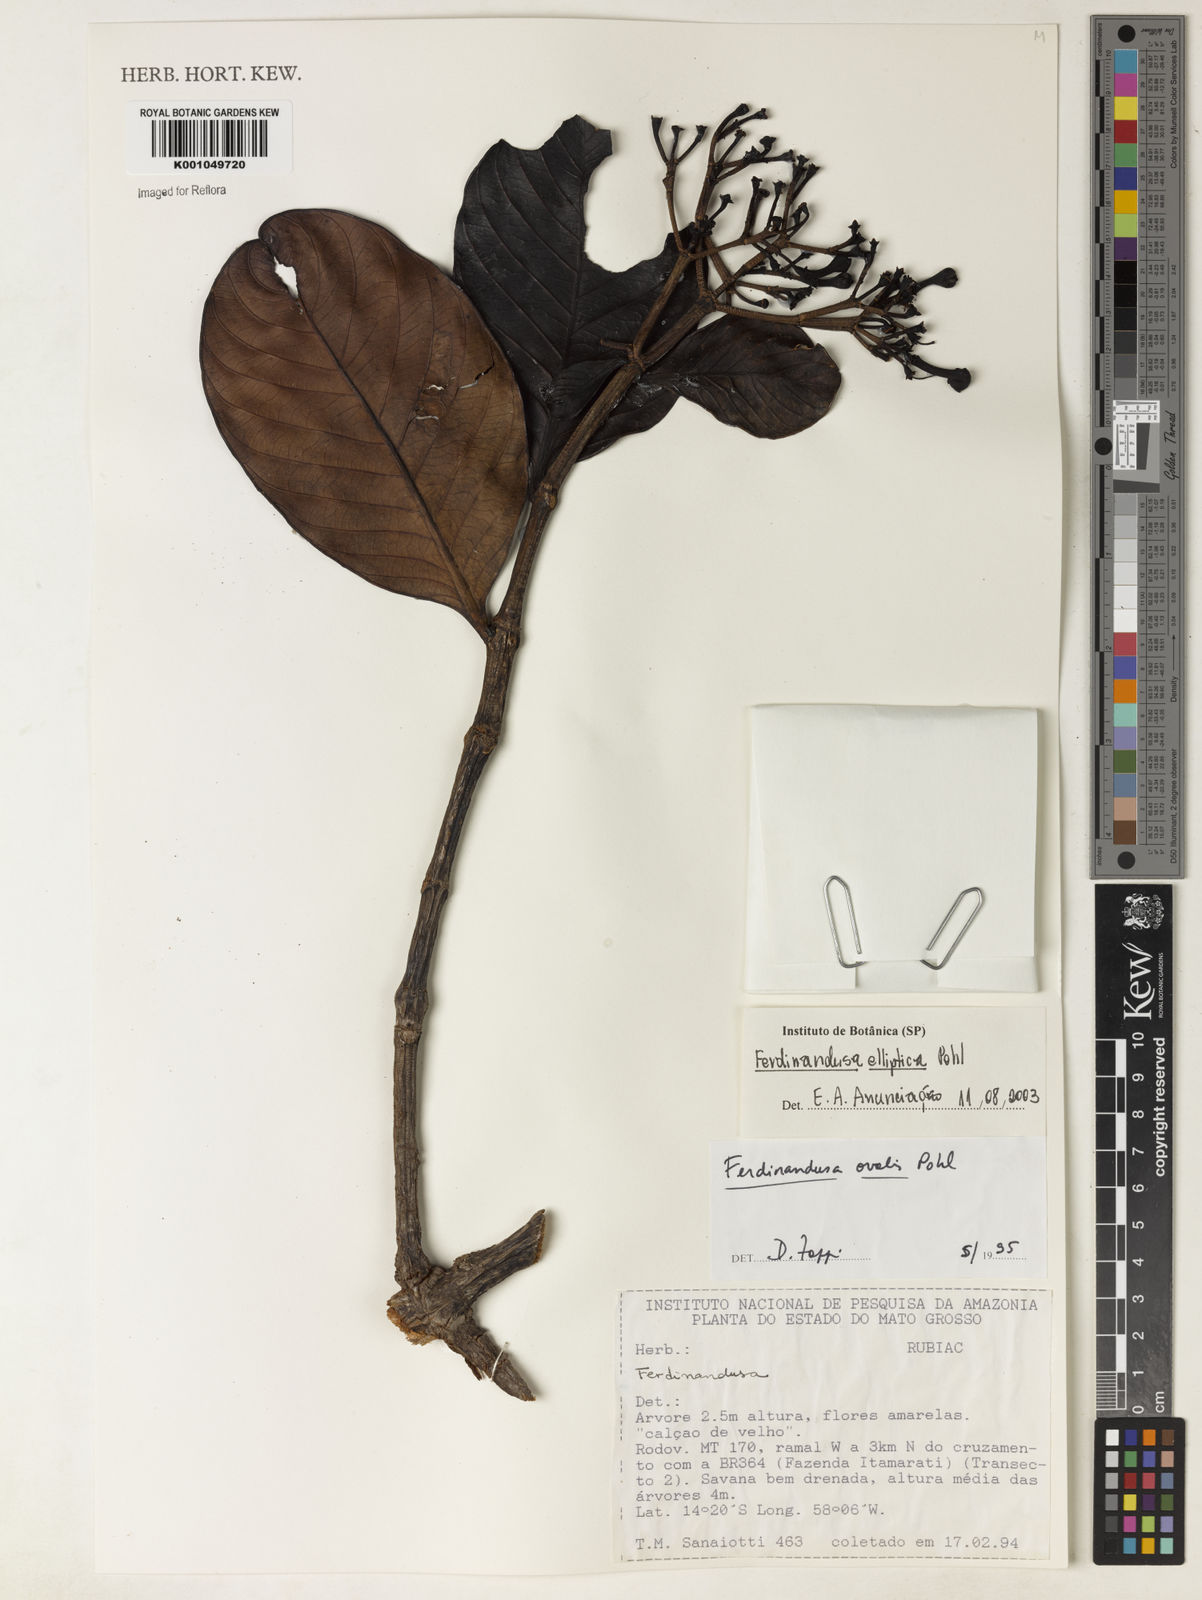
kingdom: Plantae
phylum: Tracheophyta
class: Magnoliopsida
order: Gentianales
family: Rubiaceae
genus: Ferdinandusa
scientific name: Ferdinandusa elliptica
